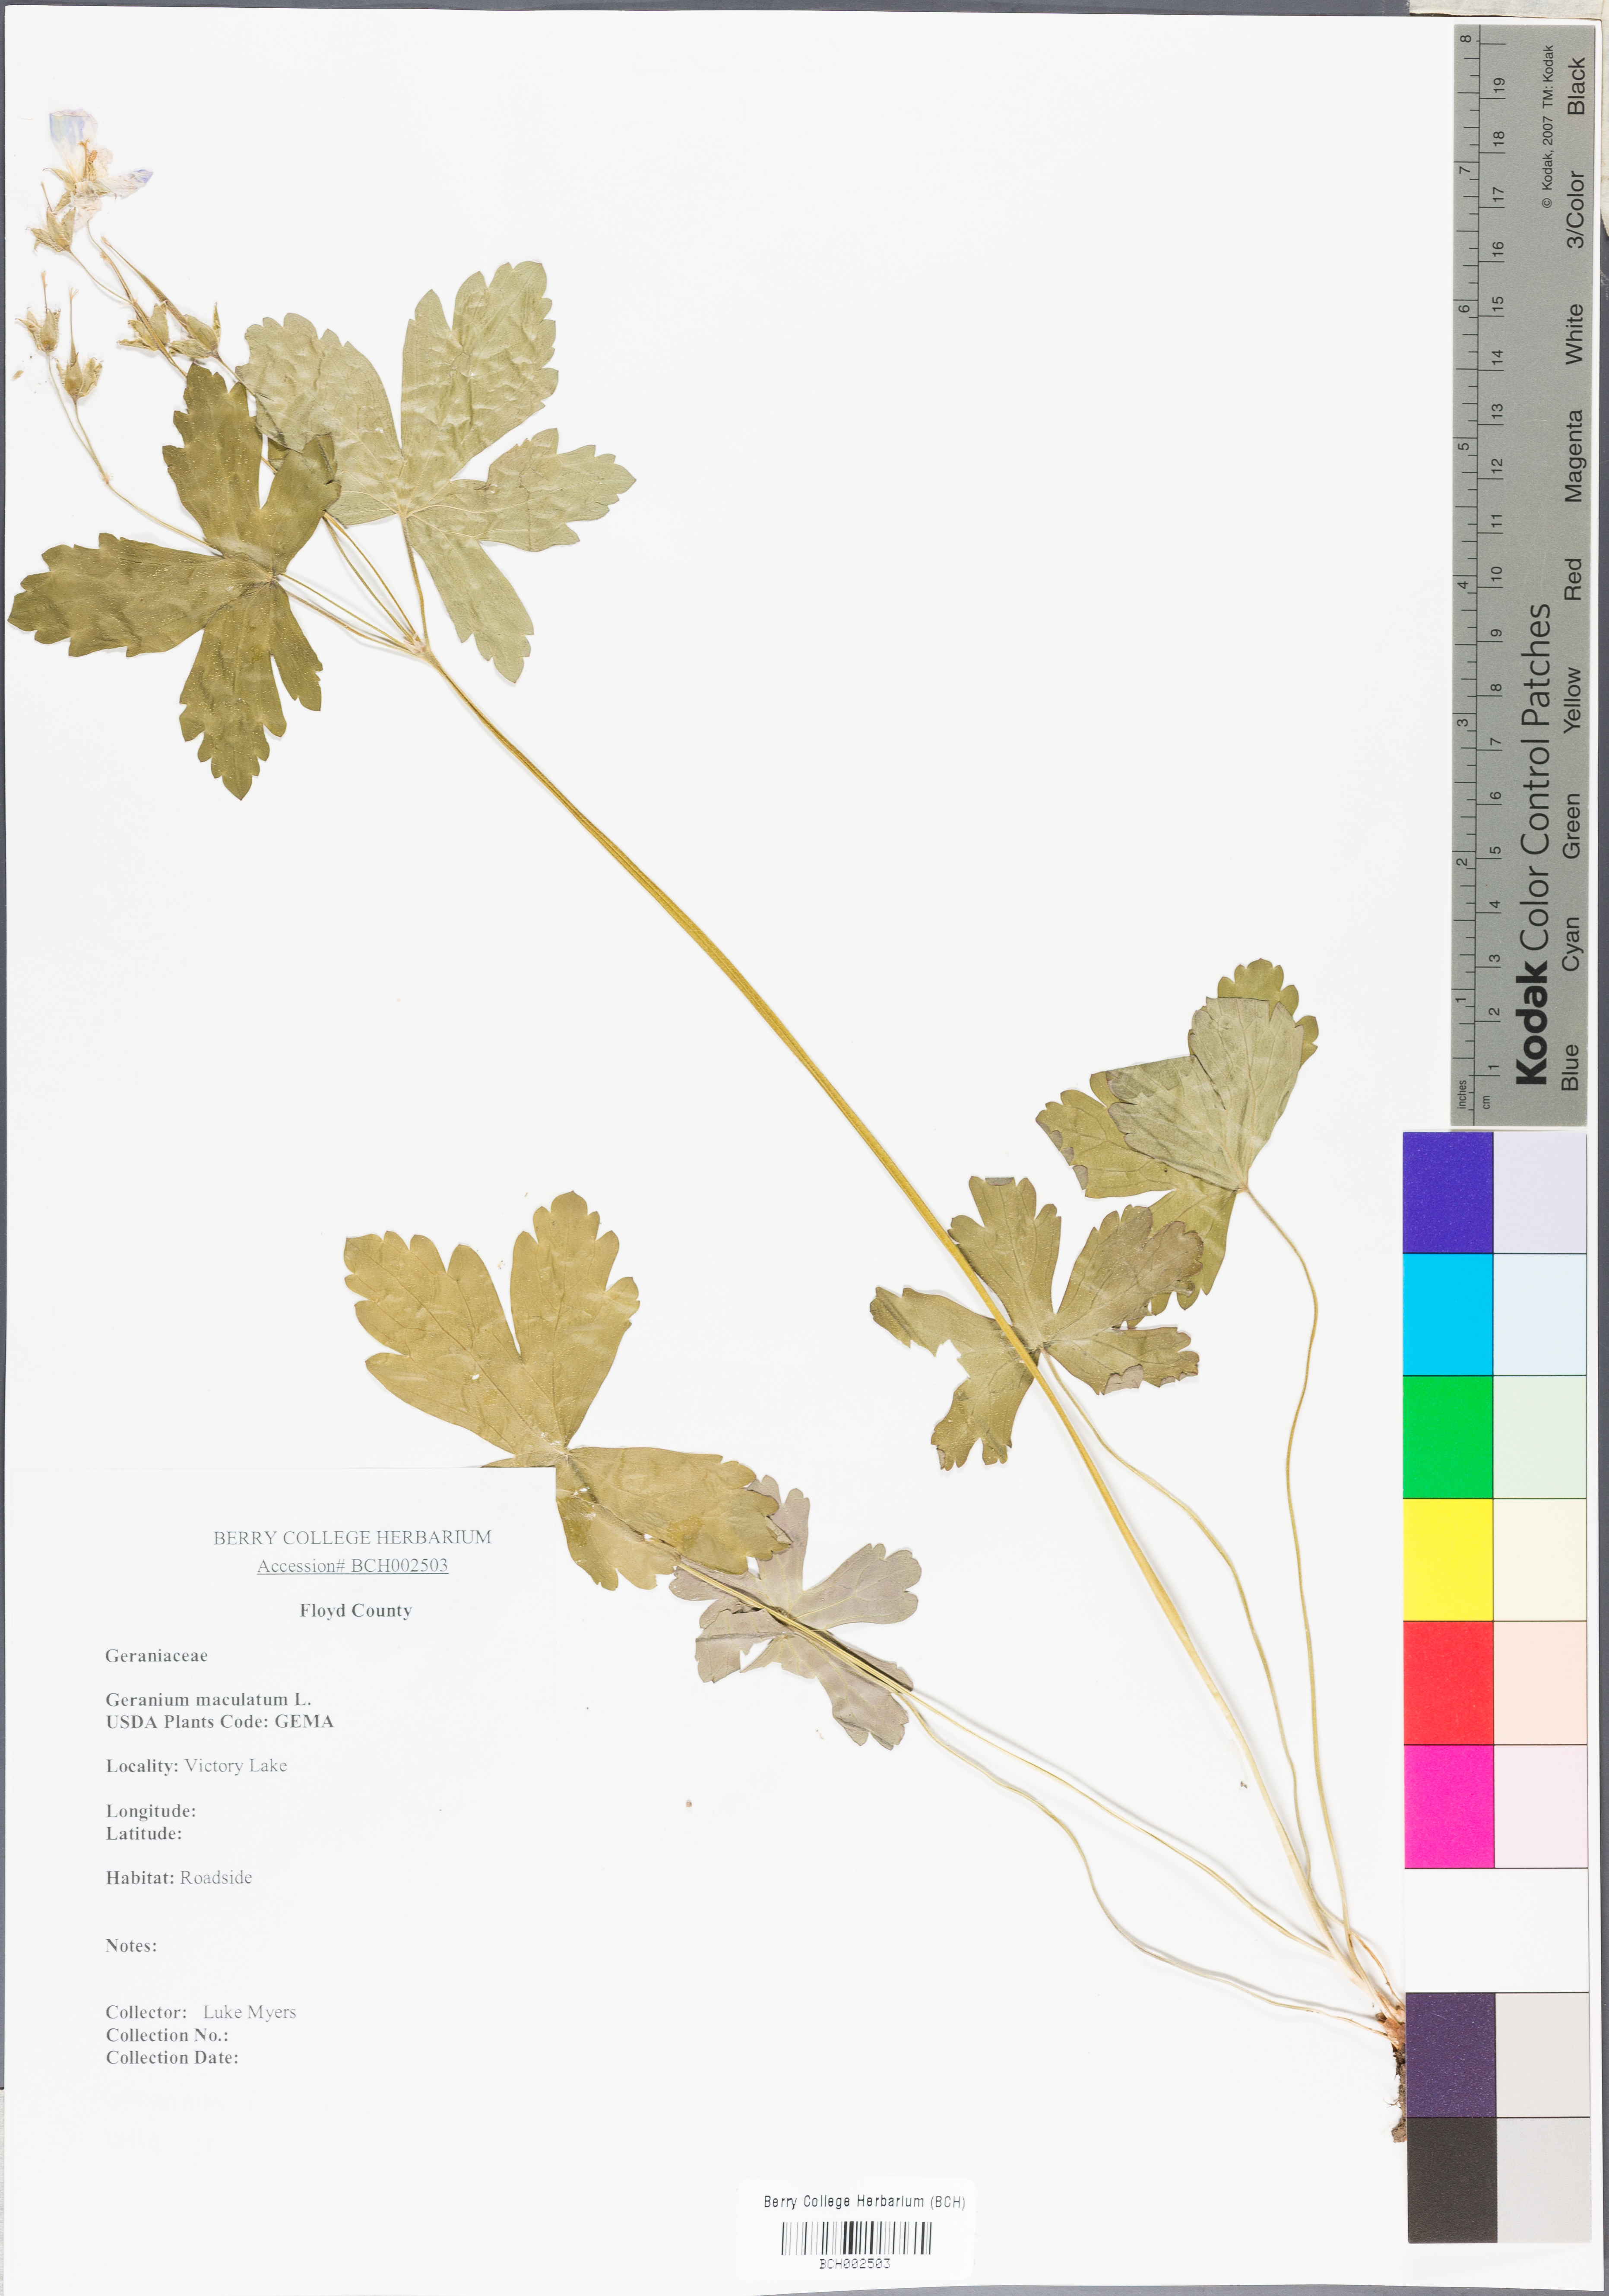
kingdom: Plantae
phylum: Tracheophyta
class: Magnoliopsida
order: Geraniales
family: Geraniaceae
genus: Geranium
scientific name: Geranium maculatum
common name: Spotted geranium
